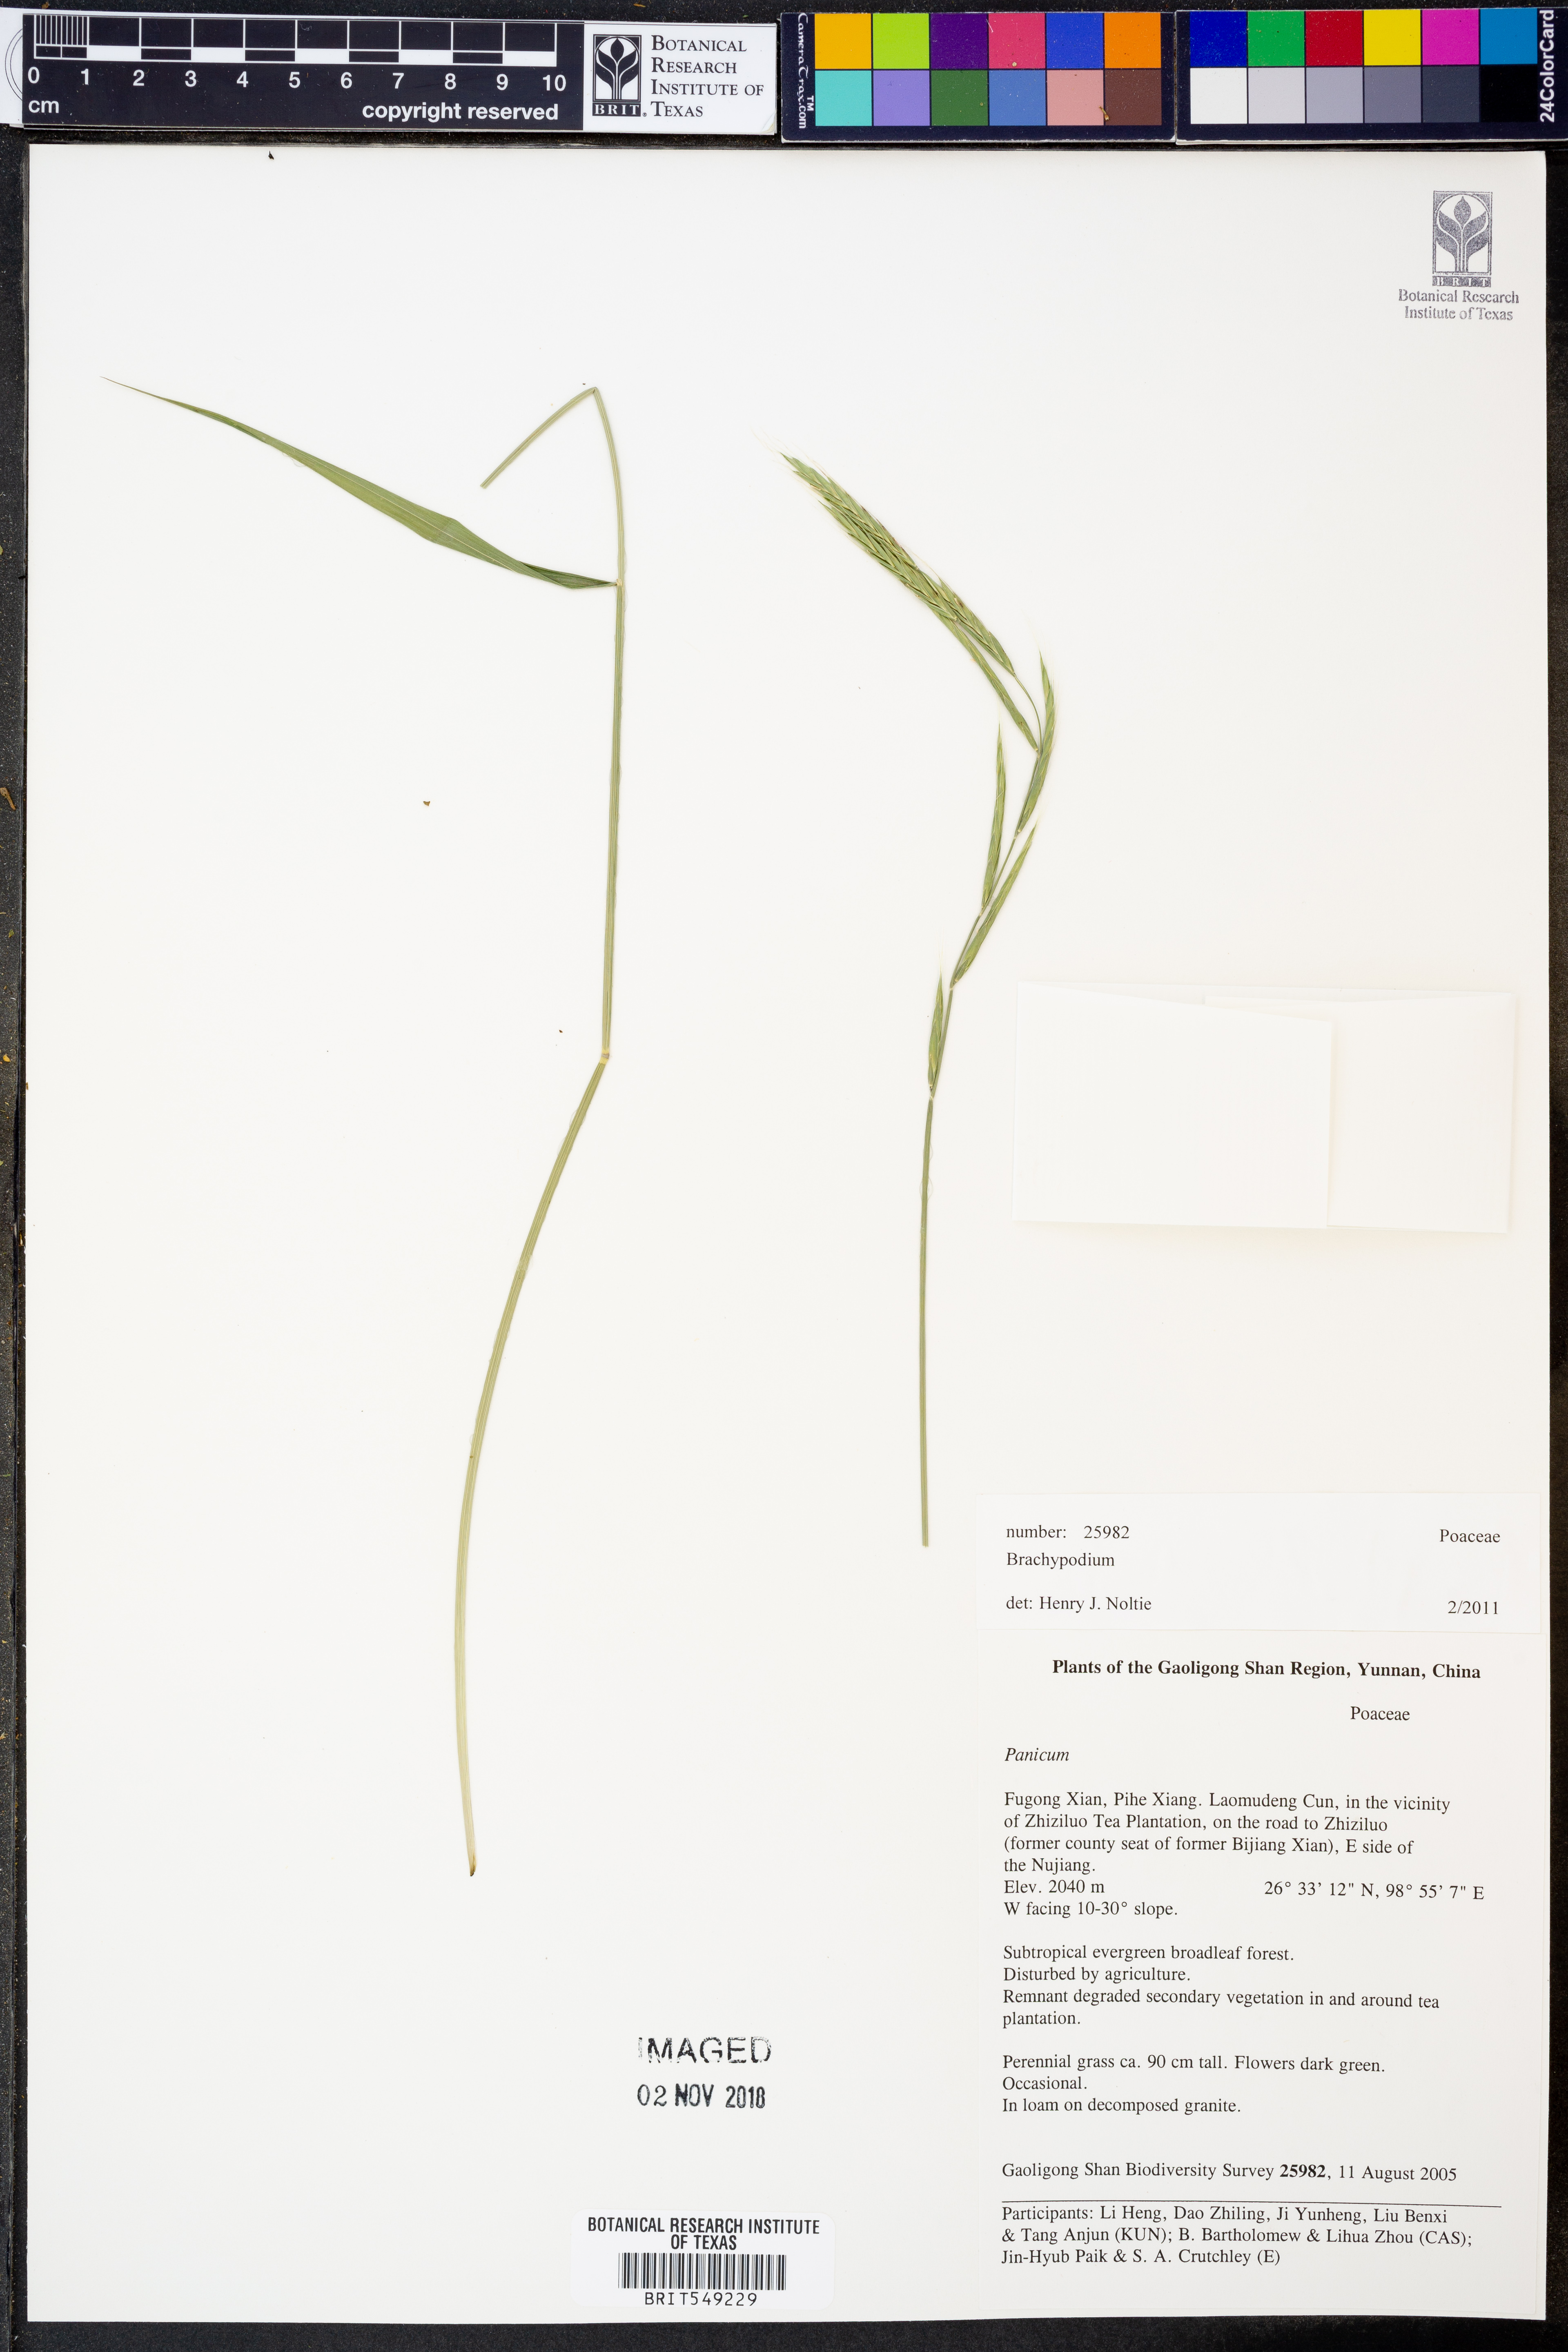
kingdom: Plantae
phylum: Tracheophyta
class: Liliopsida
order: Poales
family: Poaceae
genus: Brachypodium
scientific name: Brachypodium
